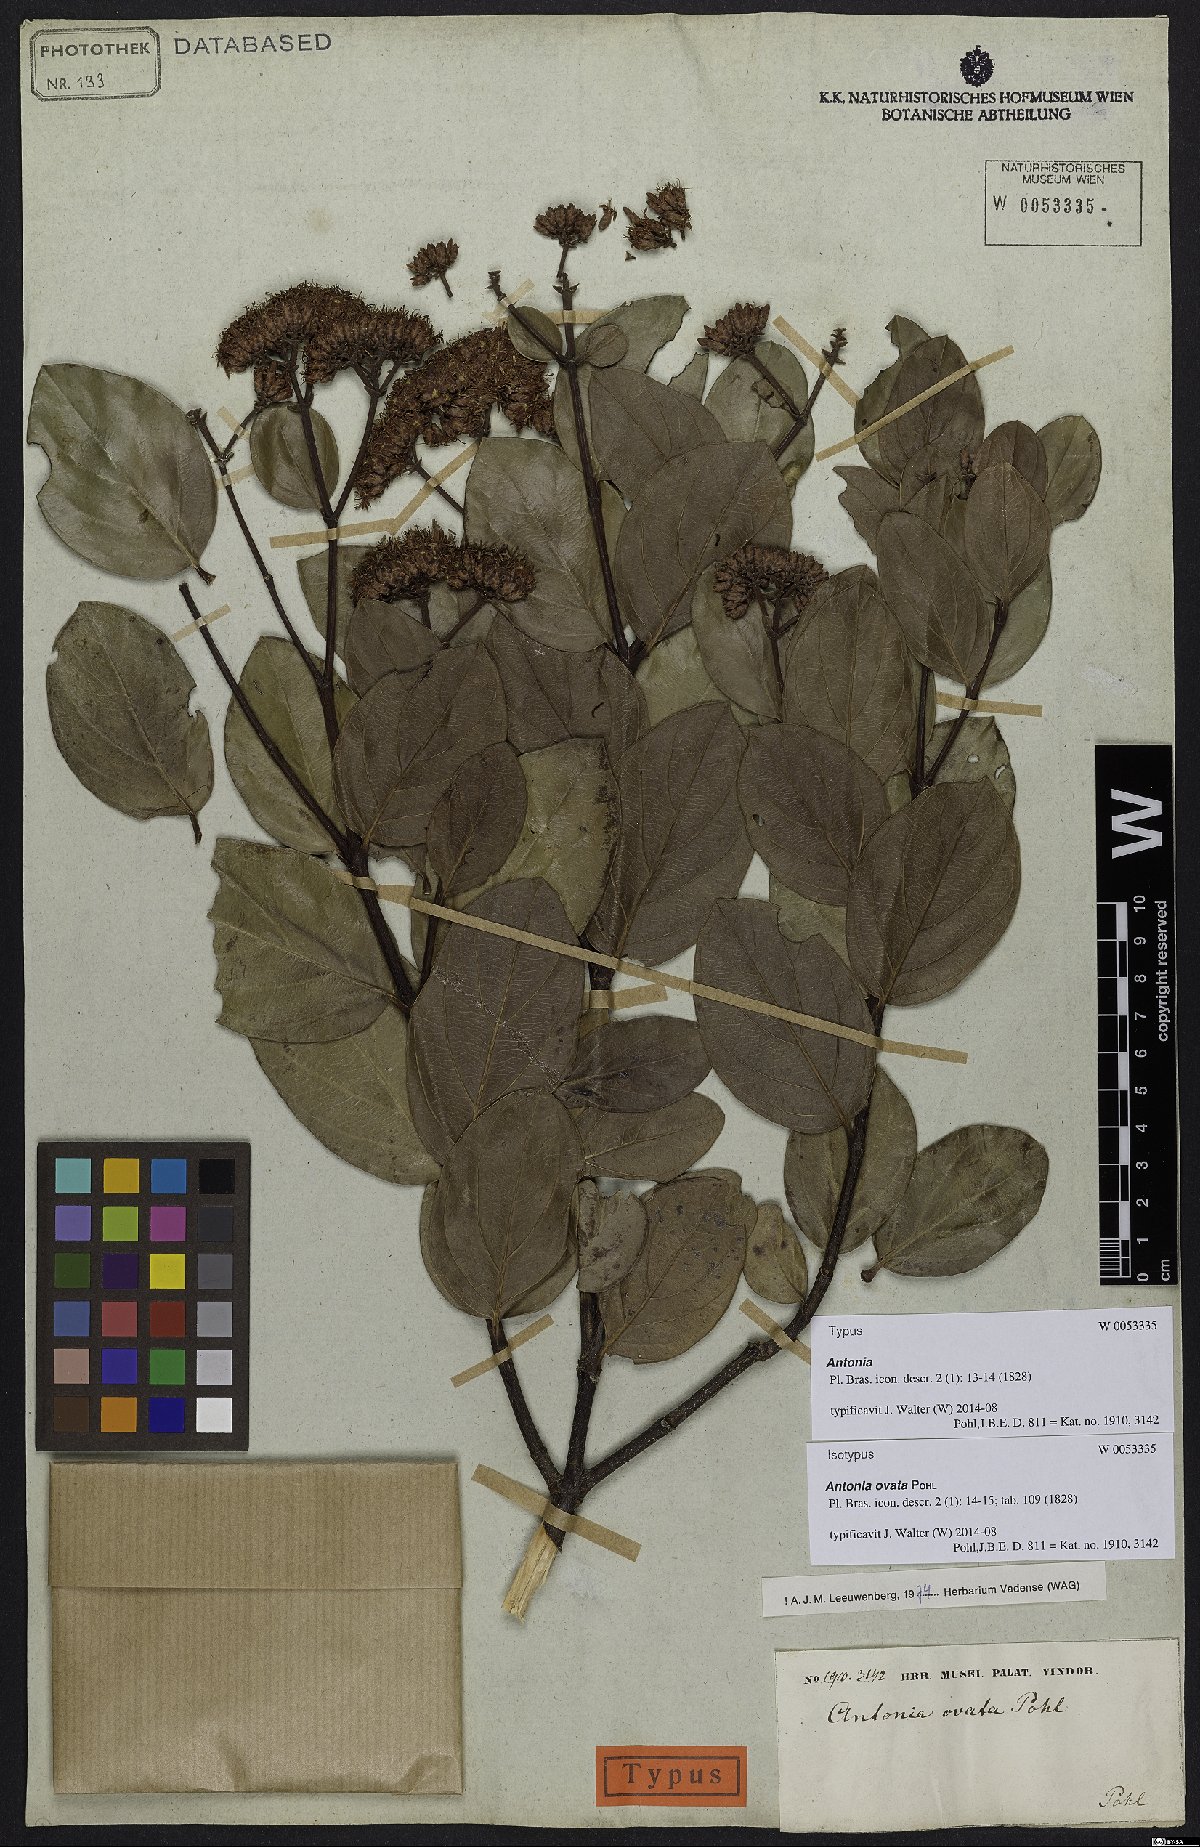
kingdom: Plantae
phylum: Tracheophyta
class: Magnoliopsida
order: Gentianales
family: Loganiaceae
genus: Antonia
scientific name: Antonia ovata
